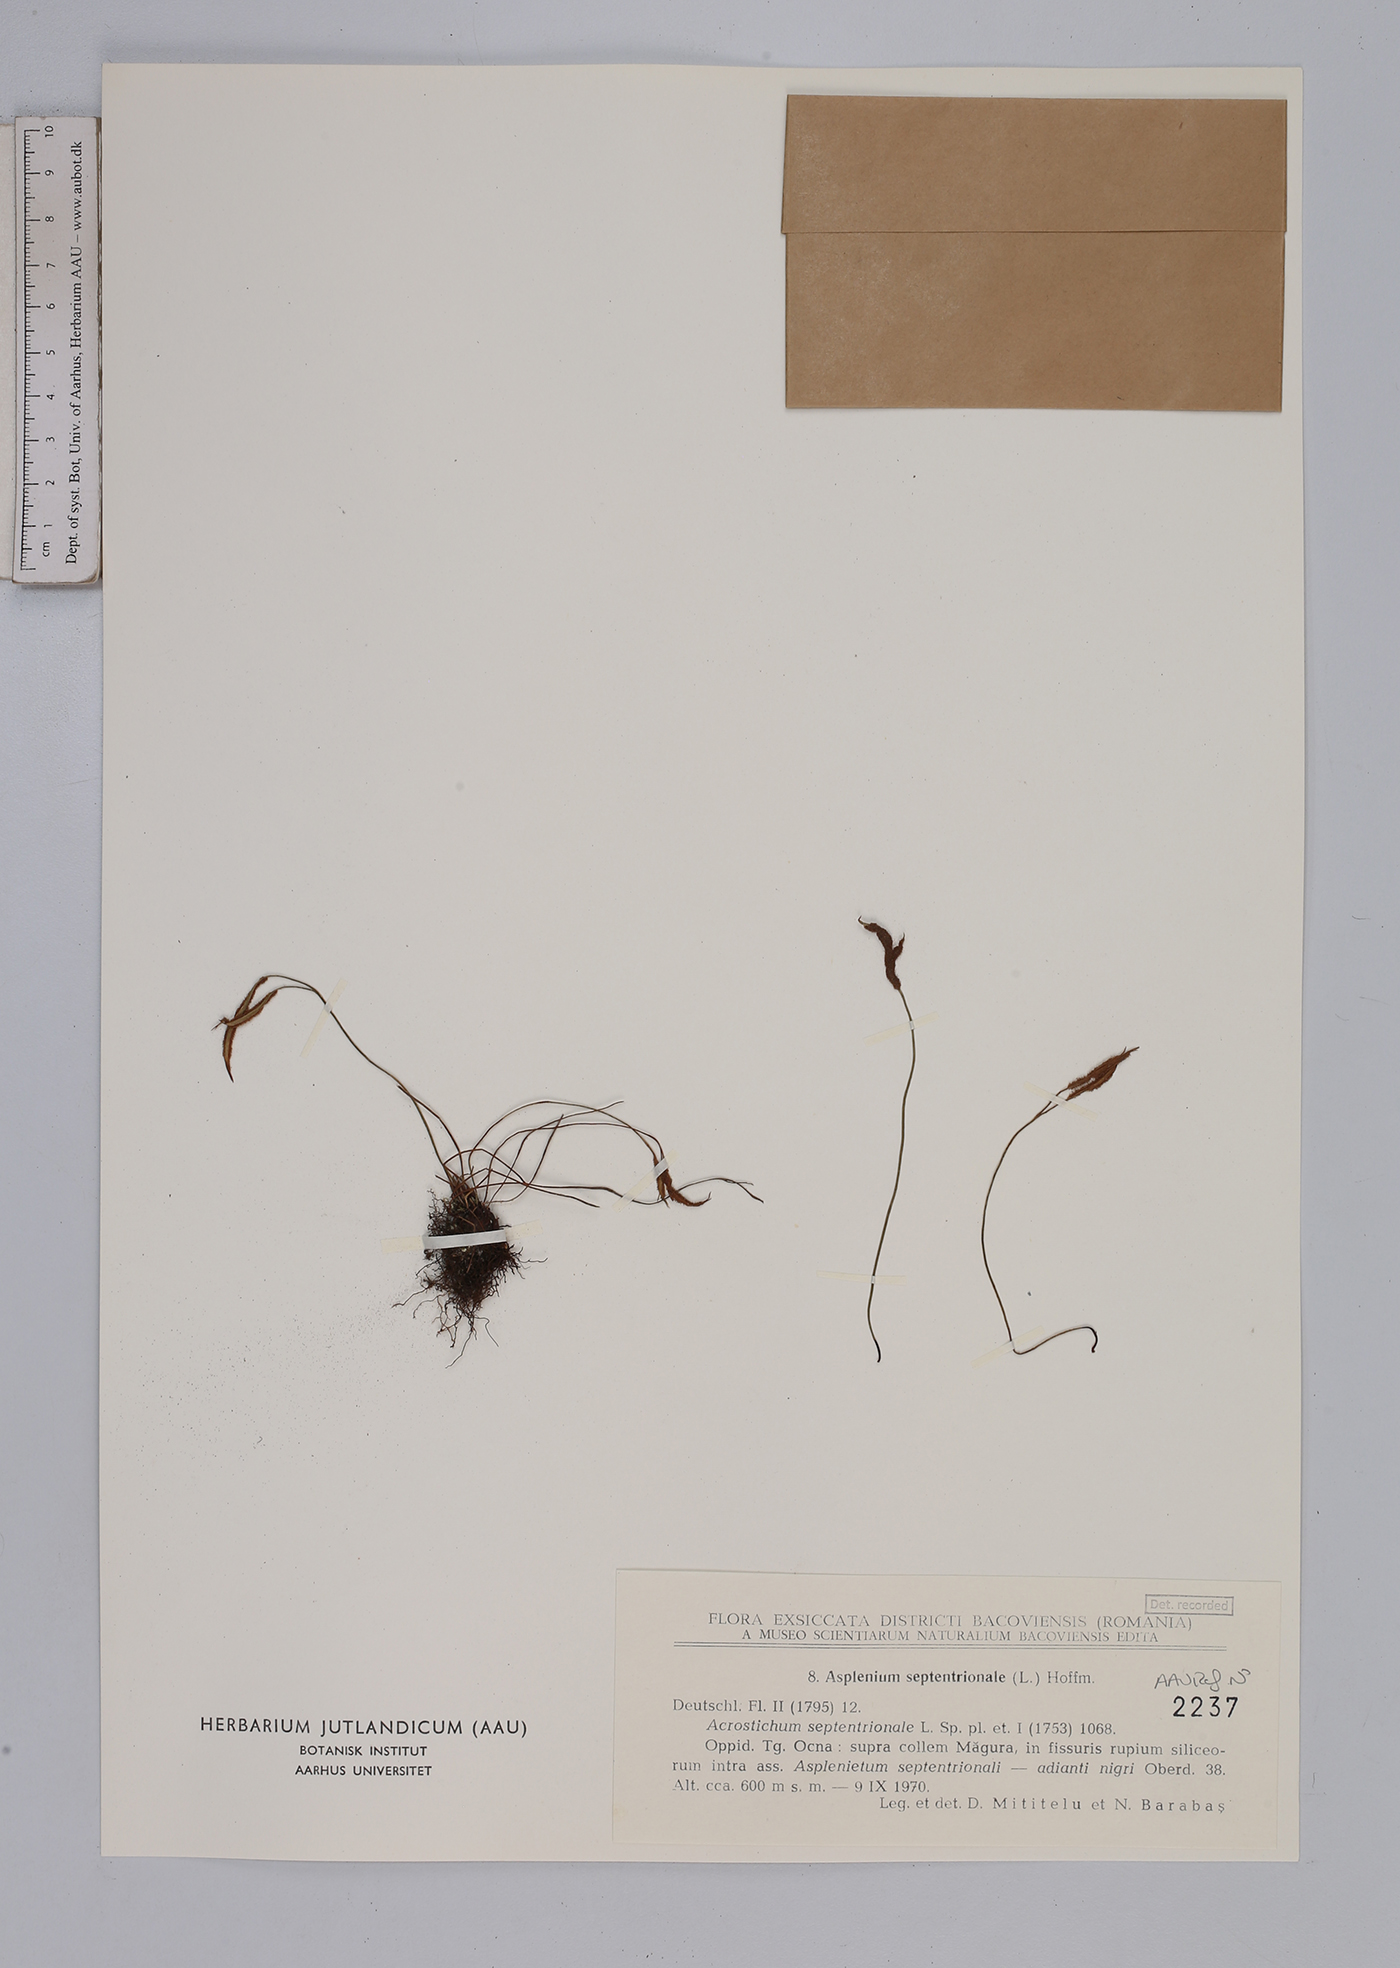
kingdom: Plantae
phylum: Tracheophyta
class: Polypodiopsida
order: Polypodiales
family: Aspleniaceae
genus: Asplenium
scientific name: Asplenium septentrionale
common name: Forked spleenwort
